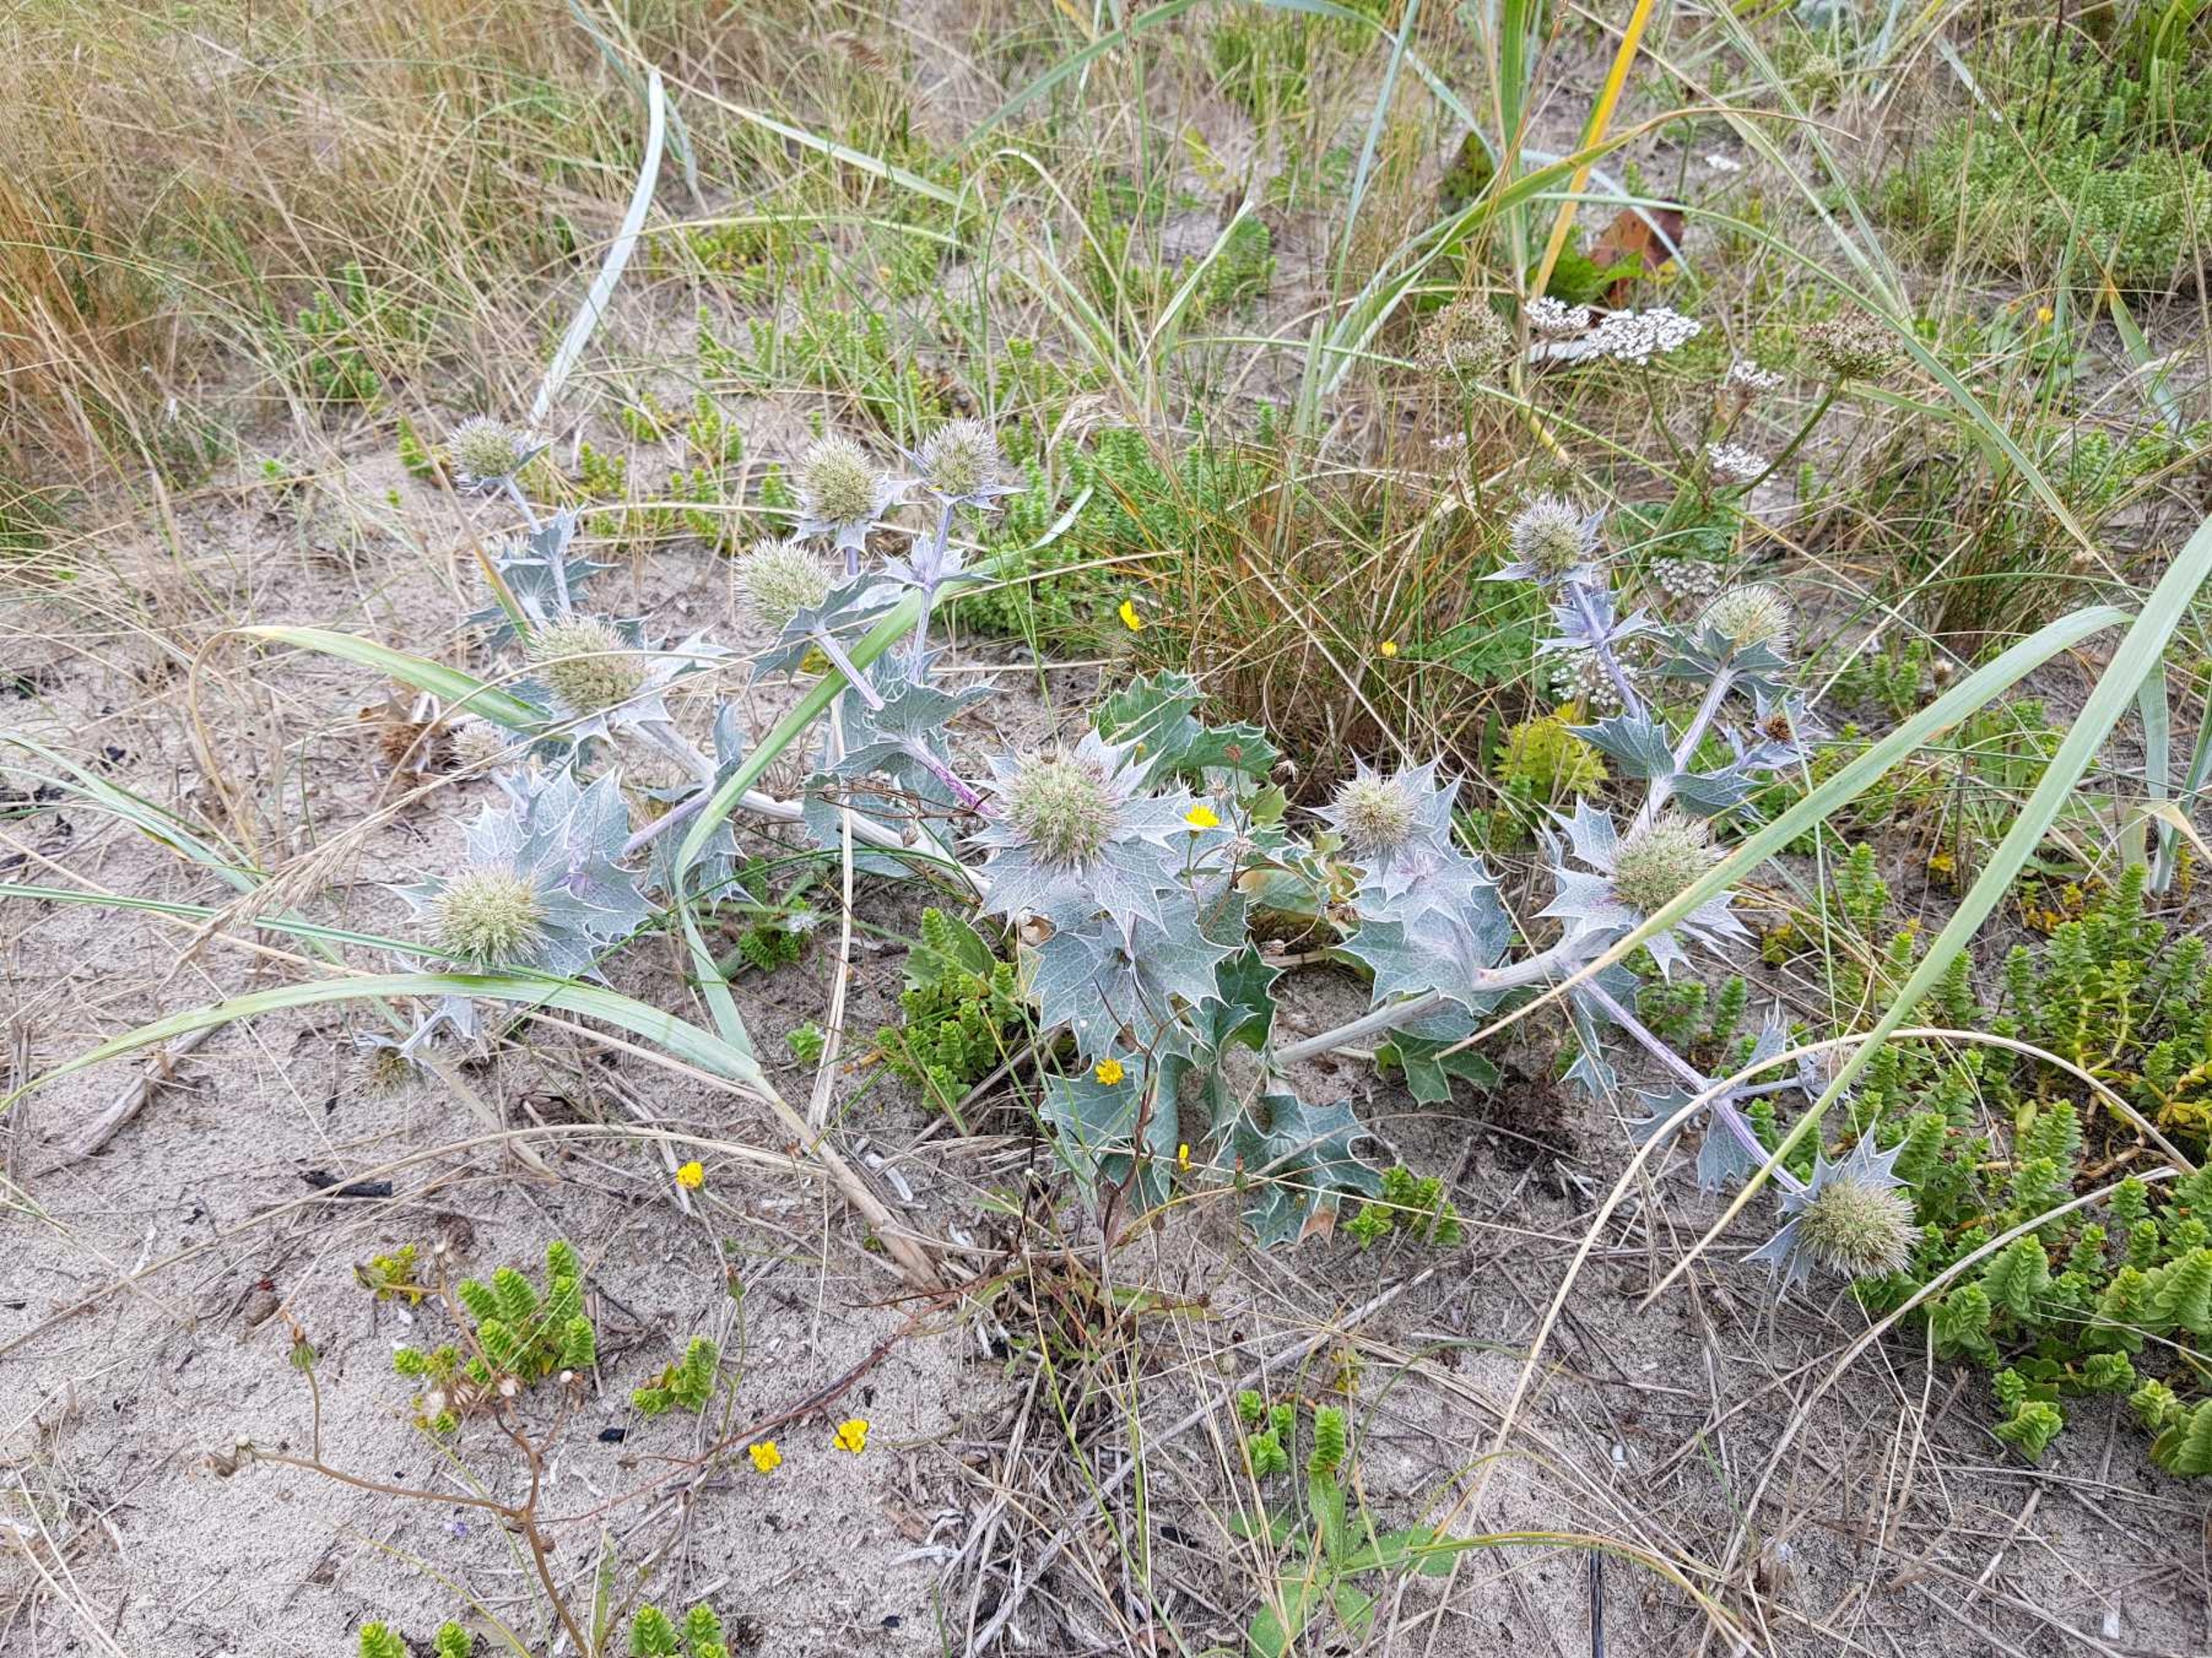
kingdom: Plantae
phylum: Tracheophyta
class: Magnoliopsida
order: Apiales
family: Apiaceae
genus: Eryngium
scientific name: Eryngium maritimum
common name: Strand-mandstro
